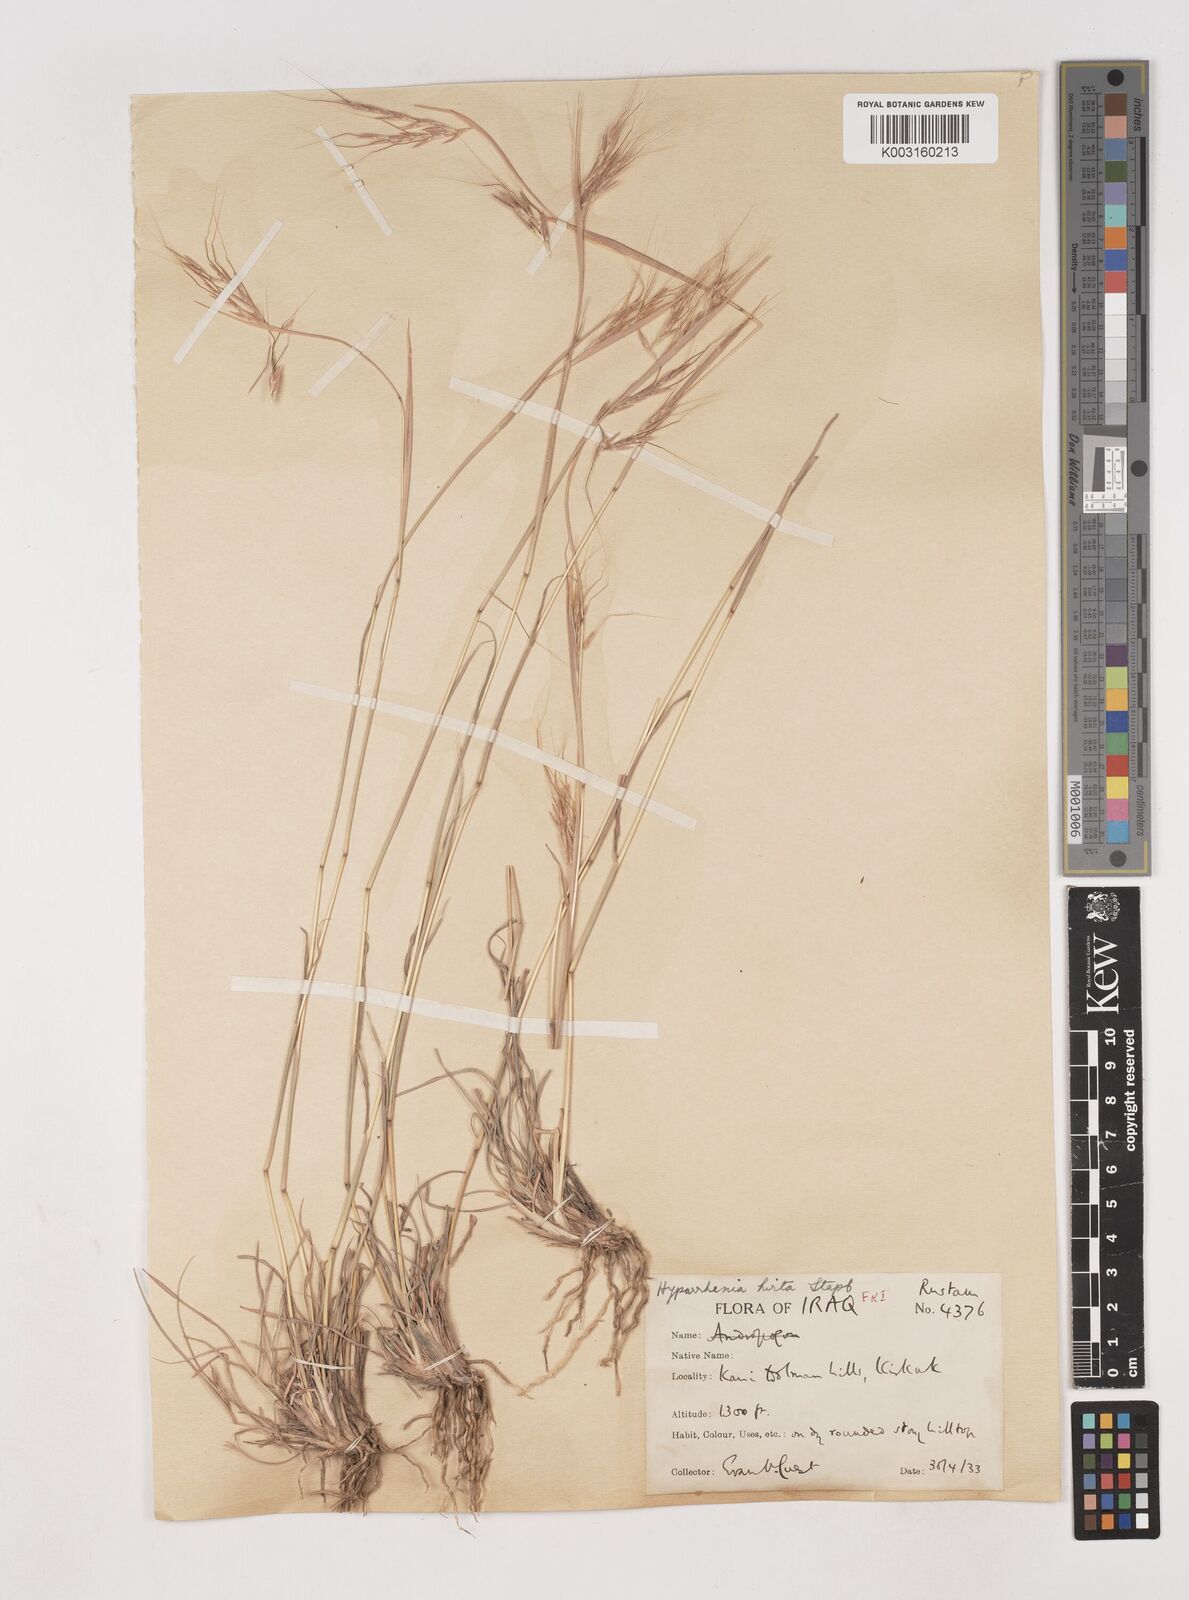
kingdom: Plantae
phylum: Tracheophyta
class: Liliopsida
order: Poales
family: Poaceae
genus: Hyparrhenia
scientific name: Hyparrhenia hirta
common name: Thatching grass
